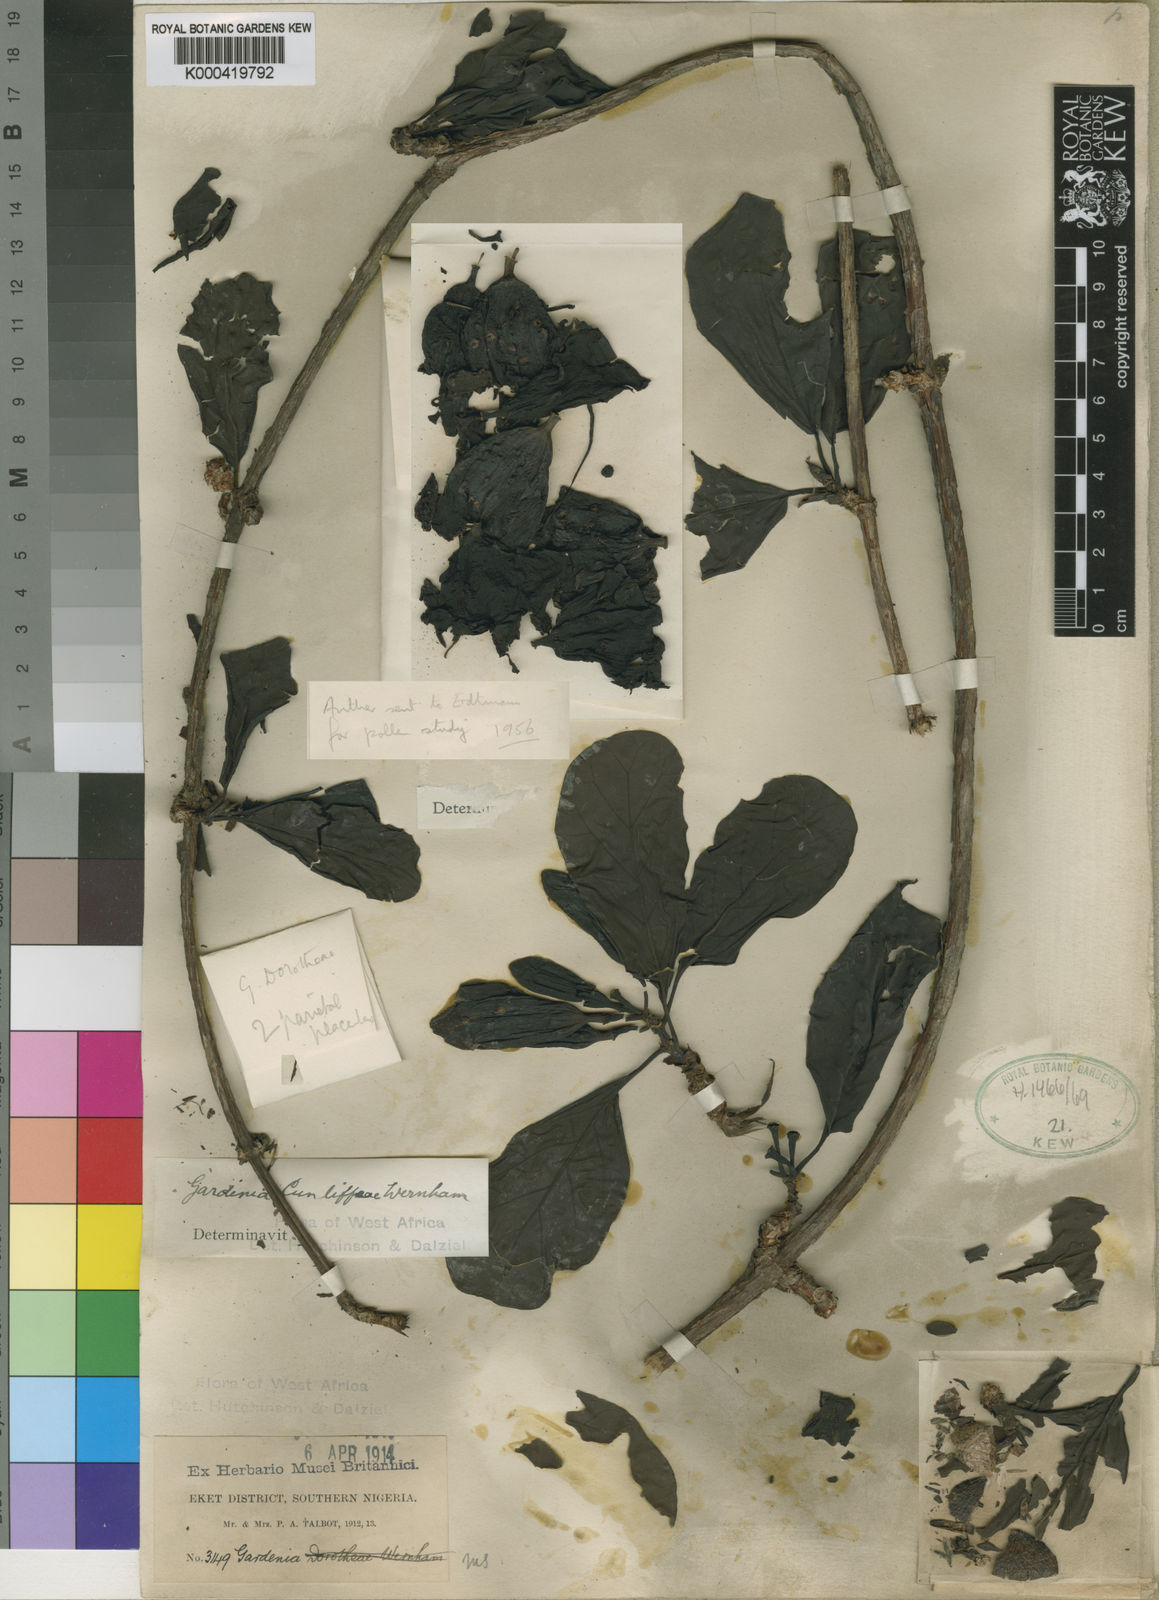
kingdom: Plantae
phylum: Tracheophyta
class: Magnoliopsida
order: Gentianales
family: Rubiaceae
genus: Oligocodon
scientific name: Oligocodon cunliffeae
